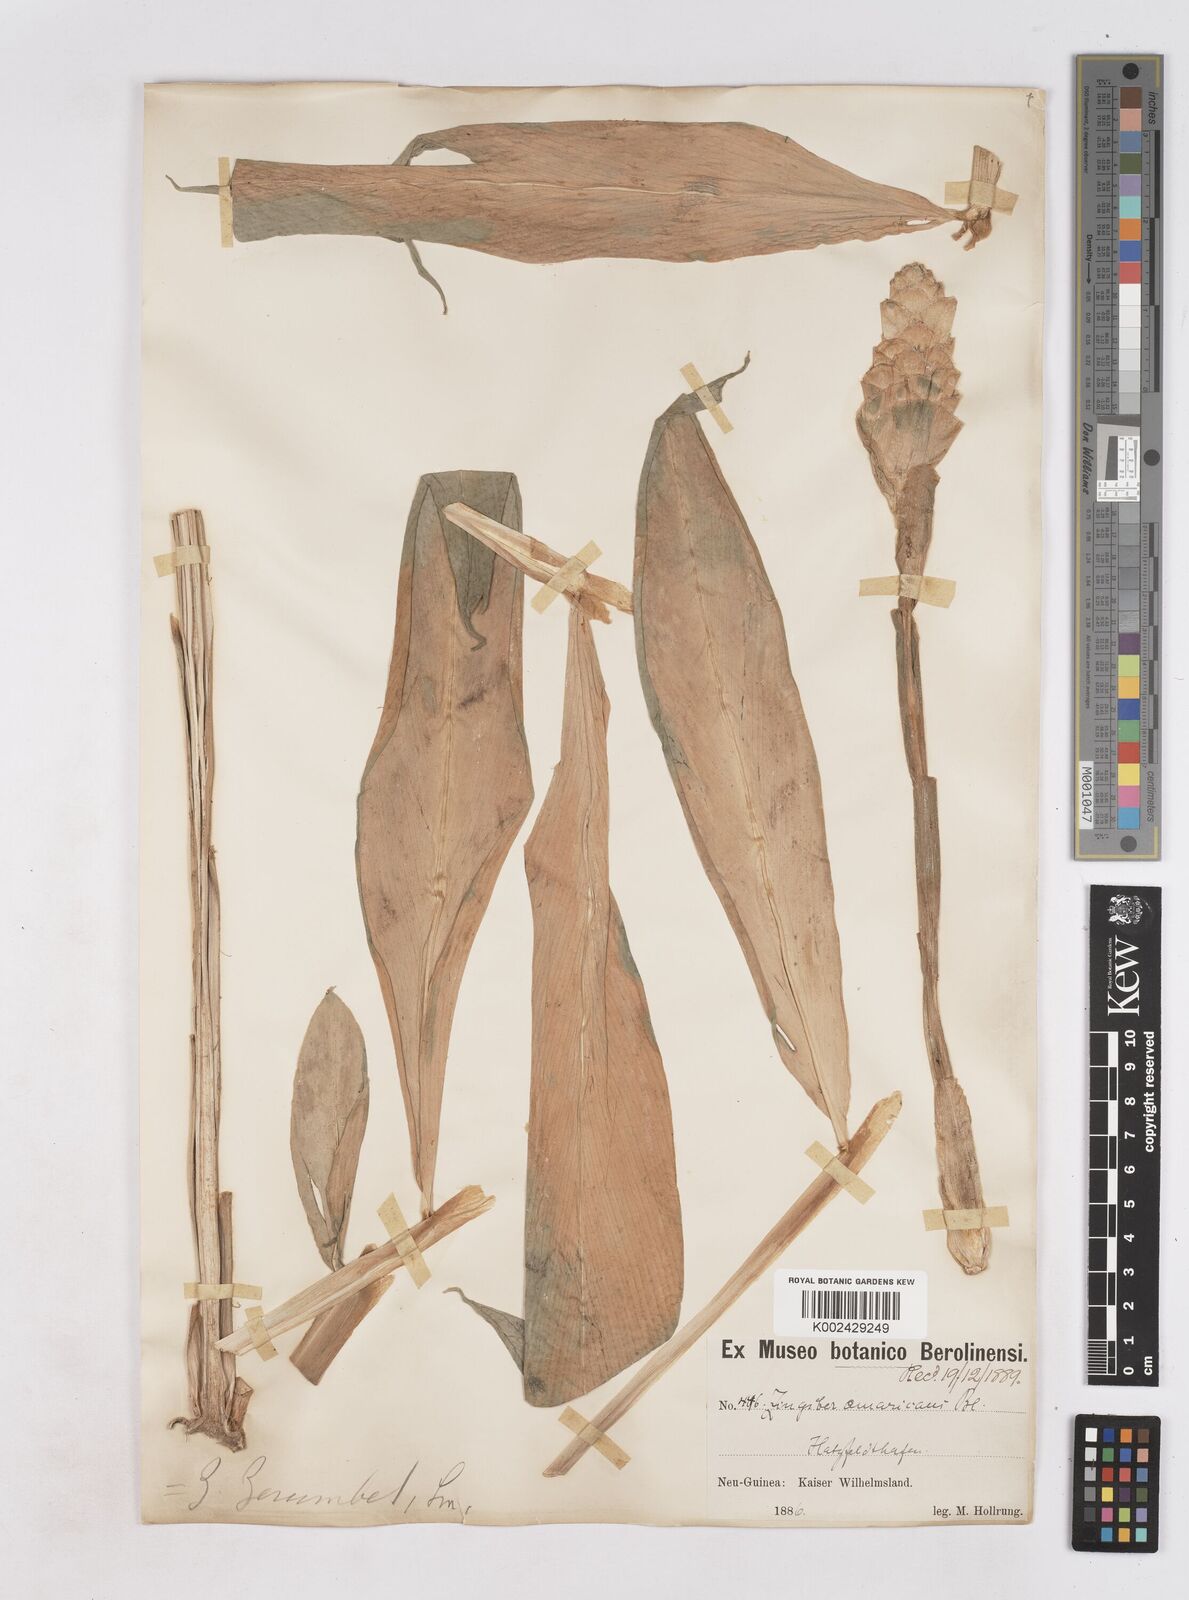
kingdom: Plantae
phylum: Tracheophyta
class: Liliopsida
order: Zingiberales
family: Zingiberaceae
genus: Zingiber
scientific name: Zingiber zerumbet
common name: Bitter ginger
